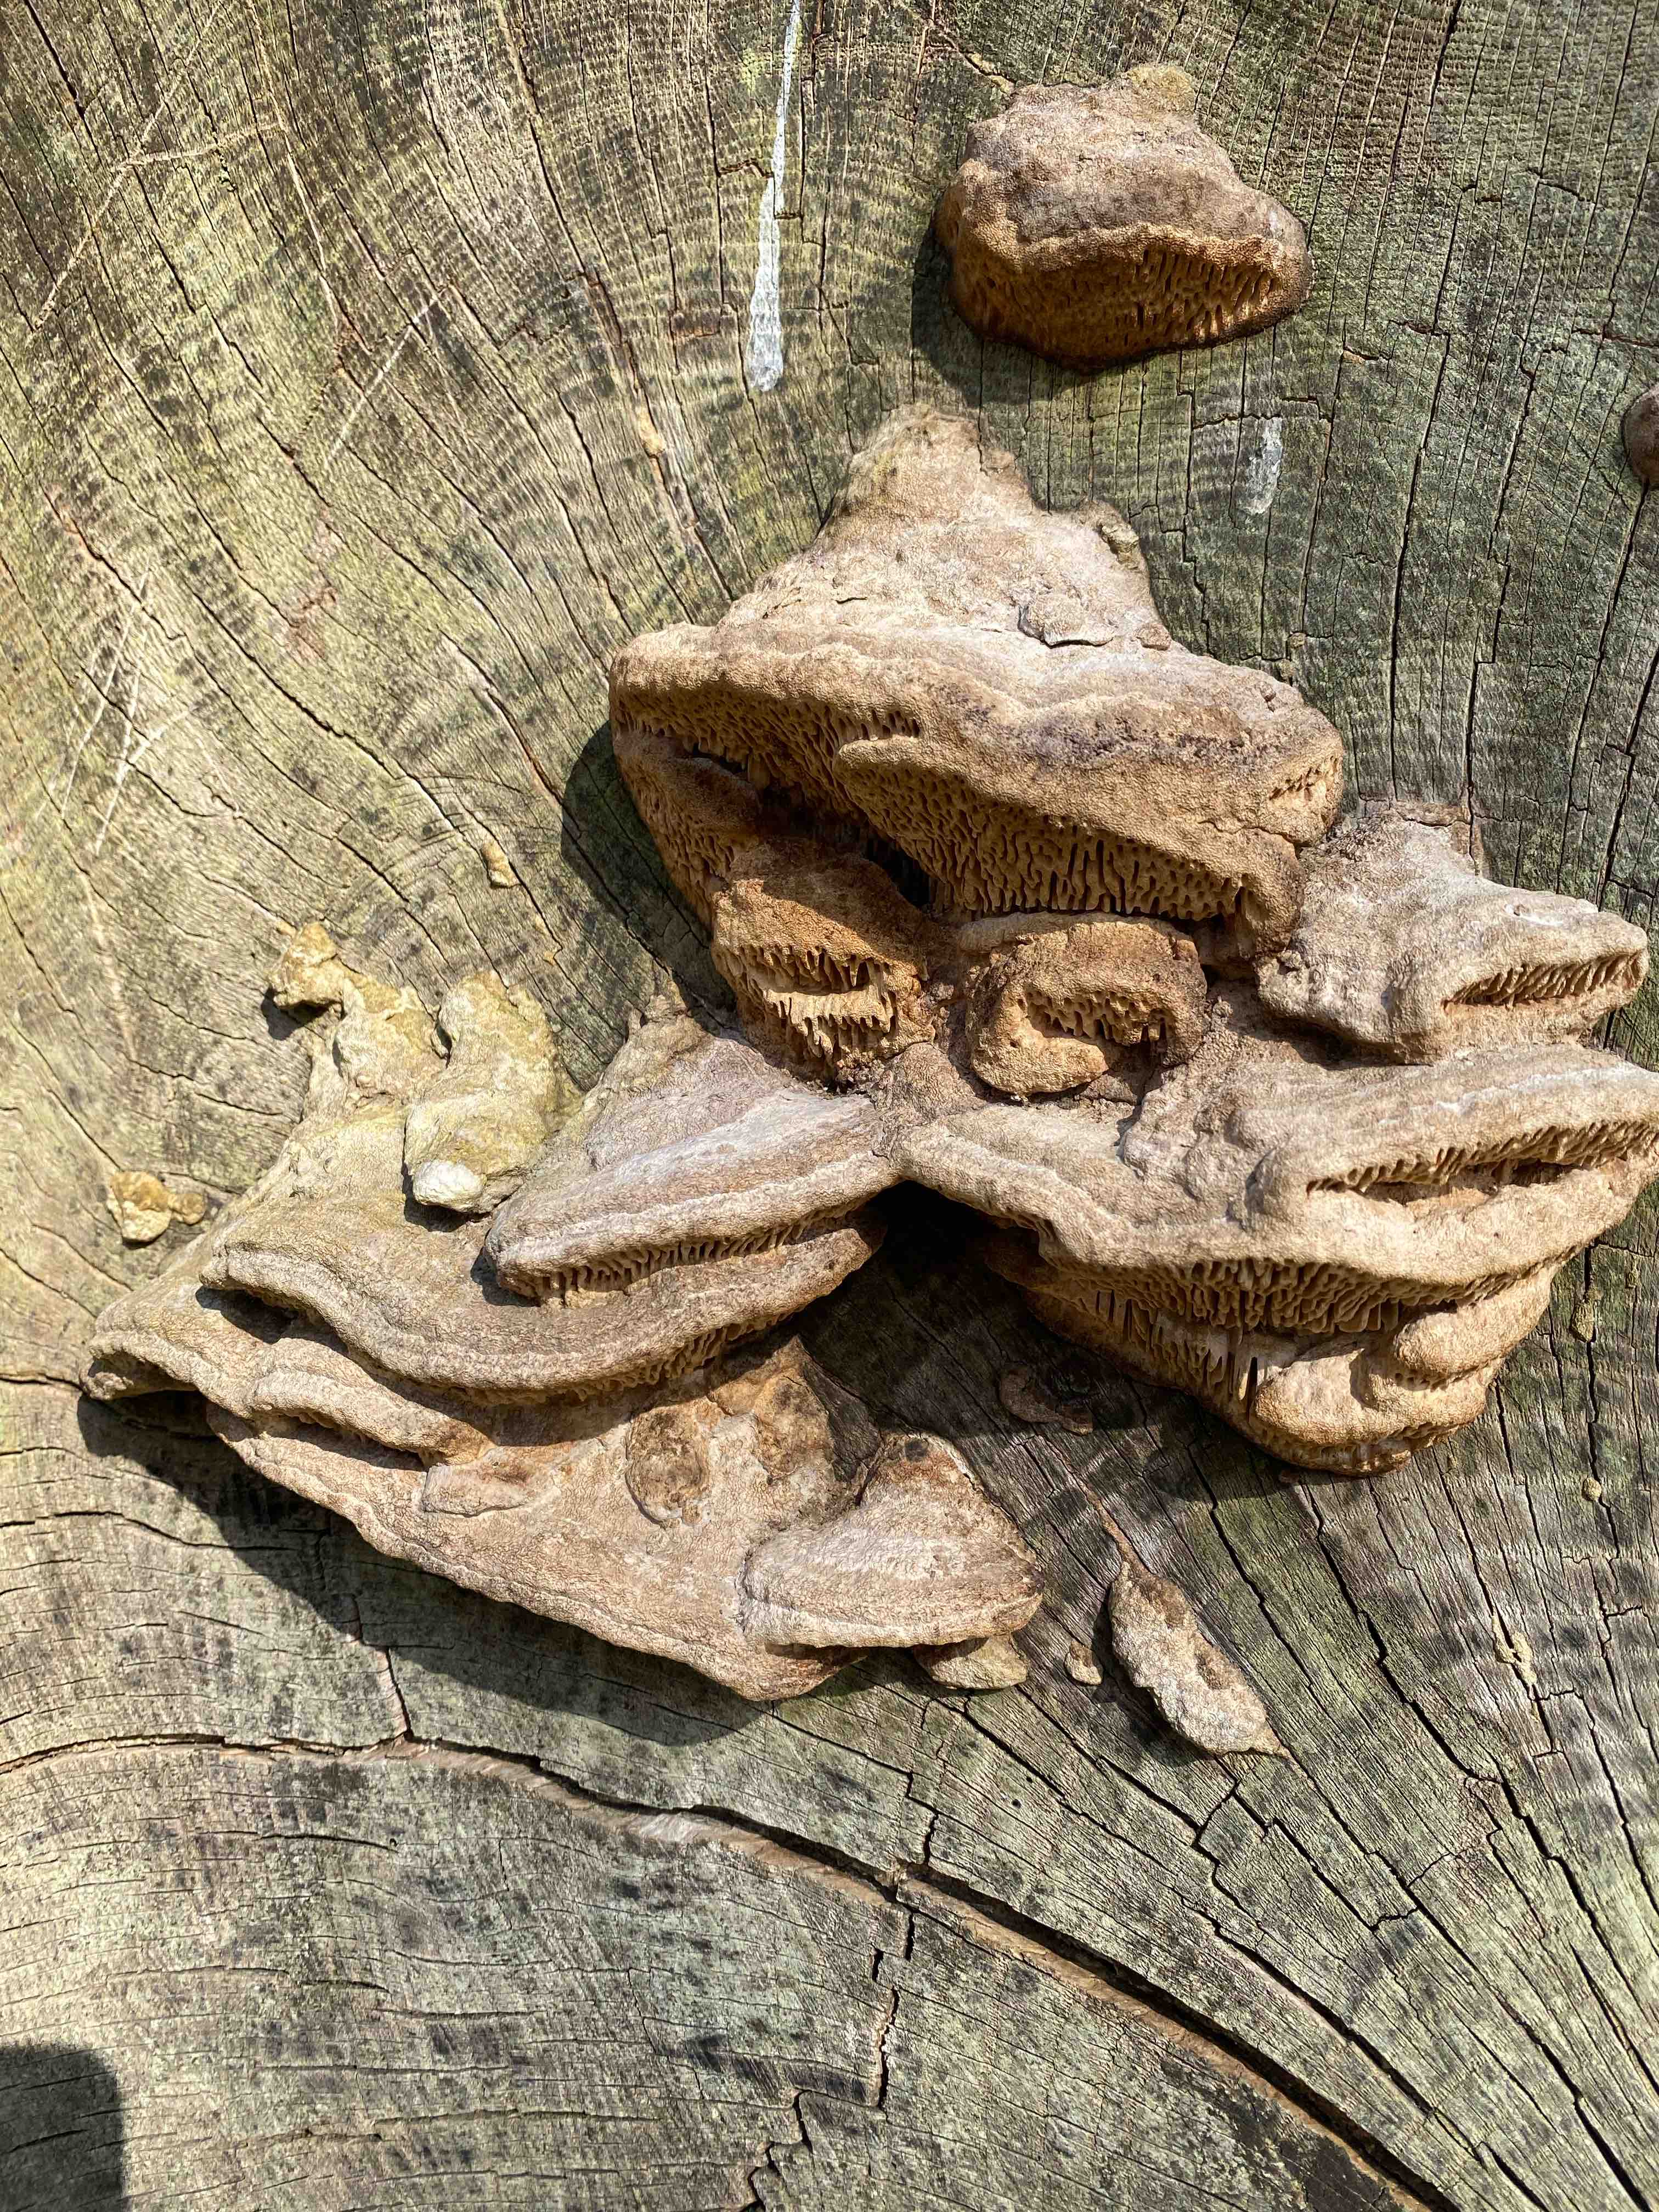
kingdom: Fungi
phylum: Basidiomycota
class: Agaricomycetes
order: Polyporales
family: Fomitopsidaceae
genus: Daedalea
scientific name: Daedalea quercina
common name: ege-labyrintsvamp
